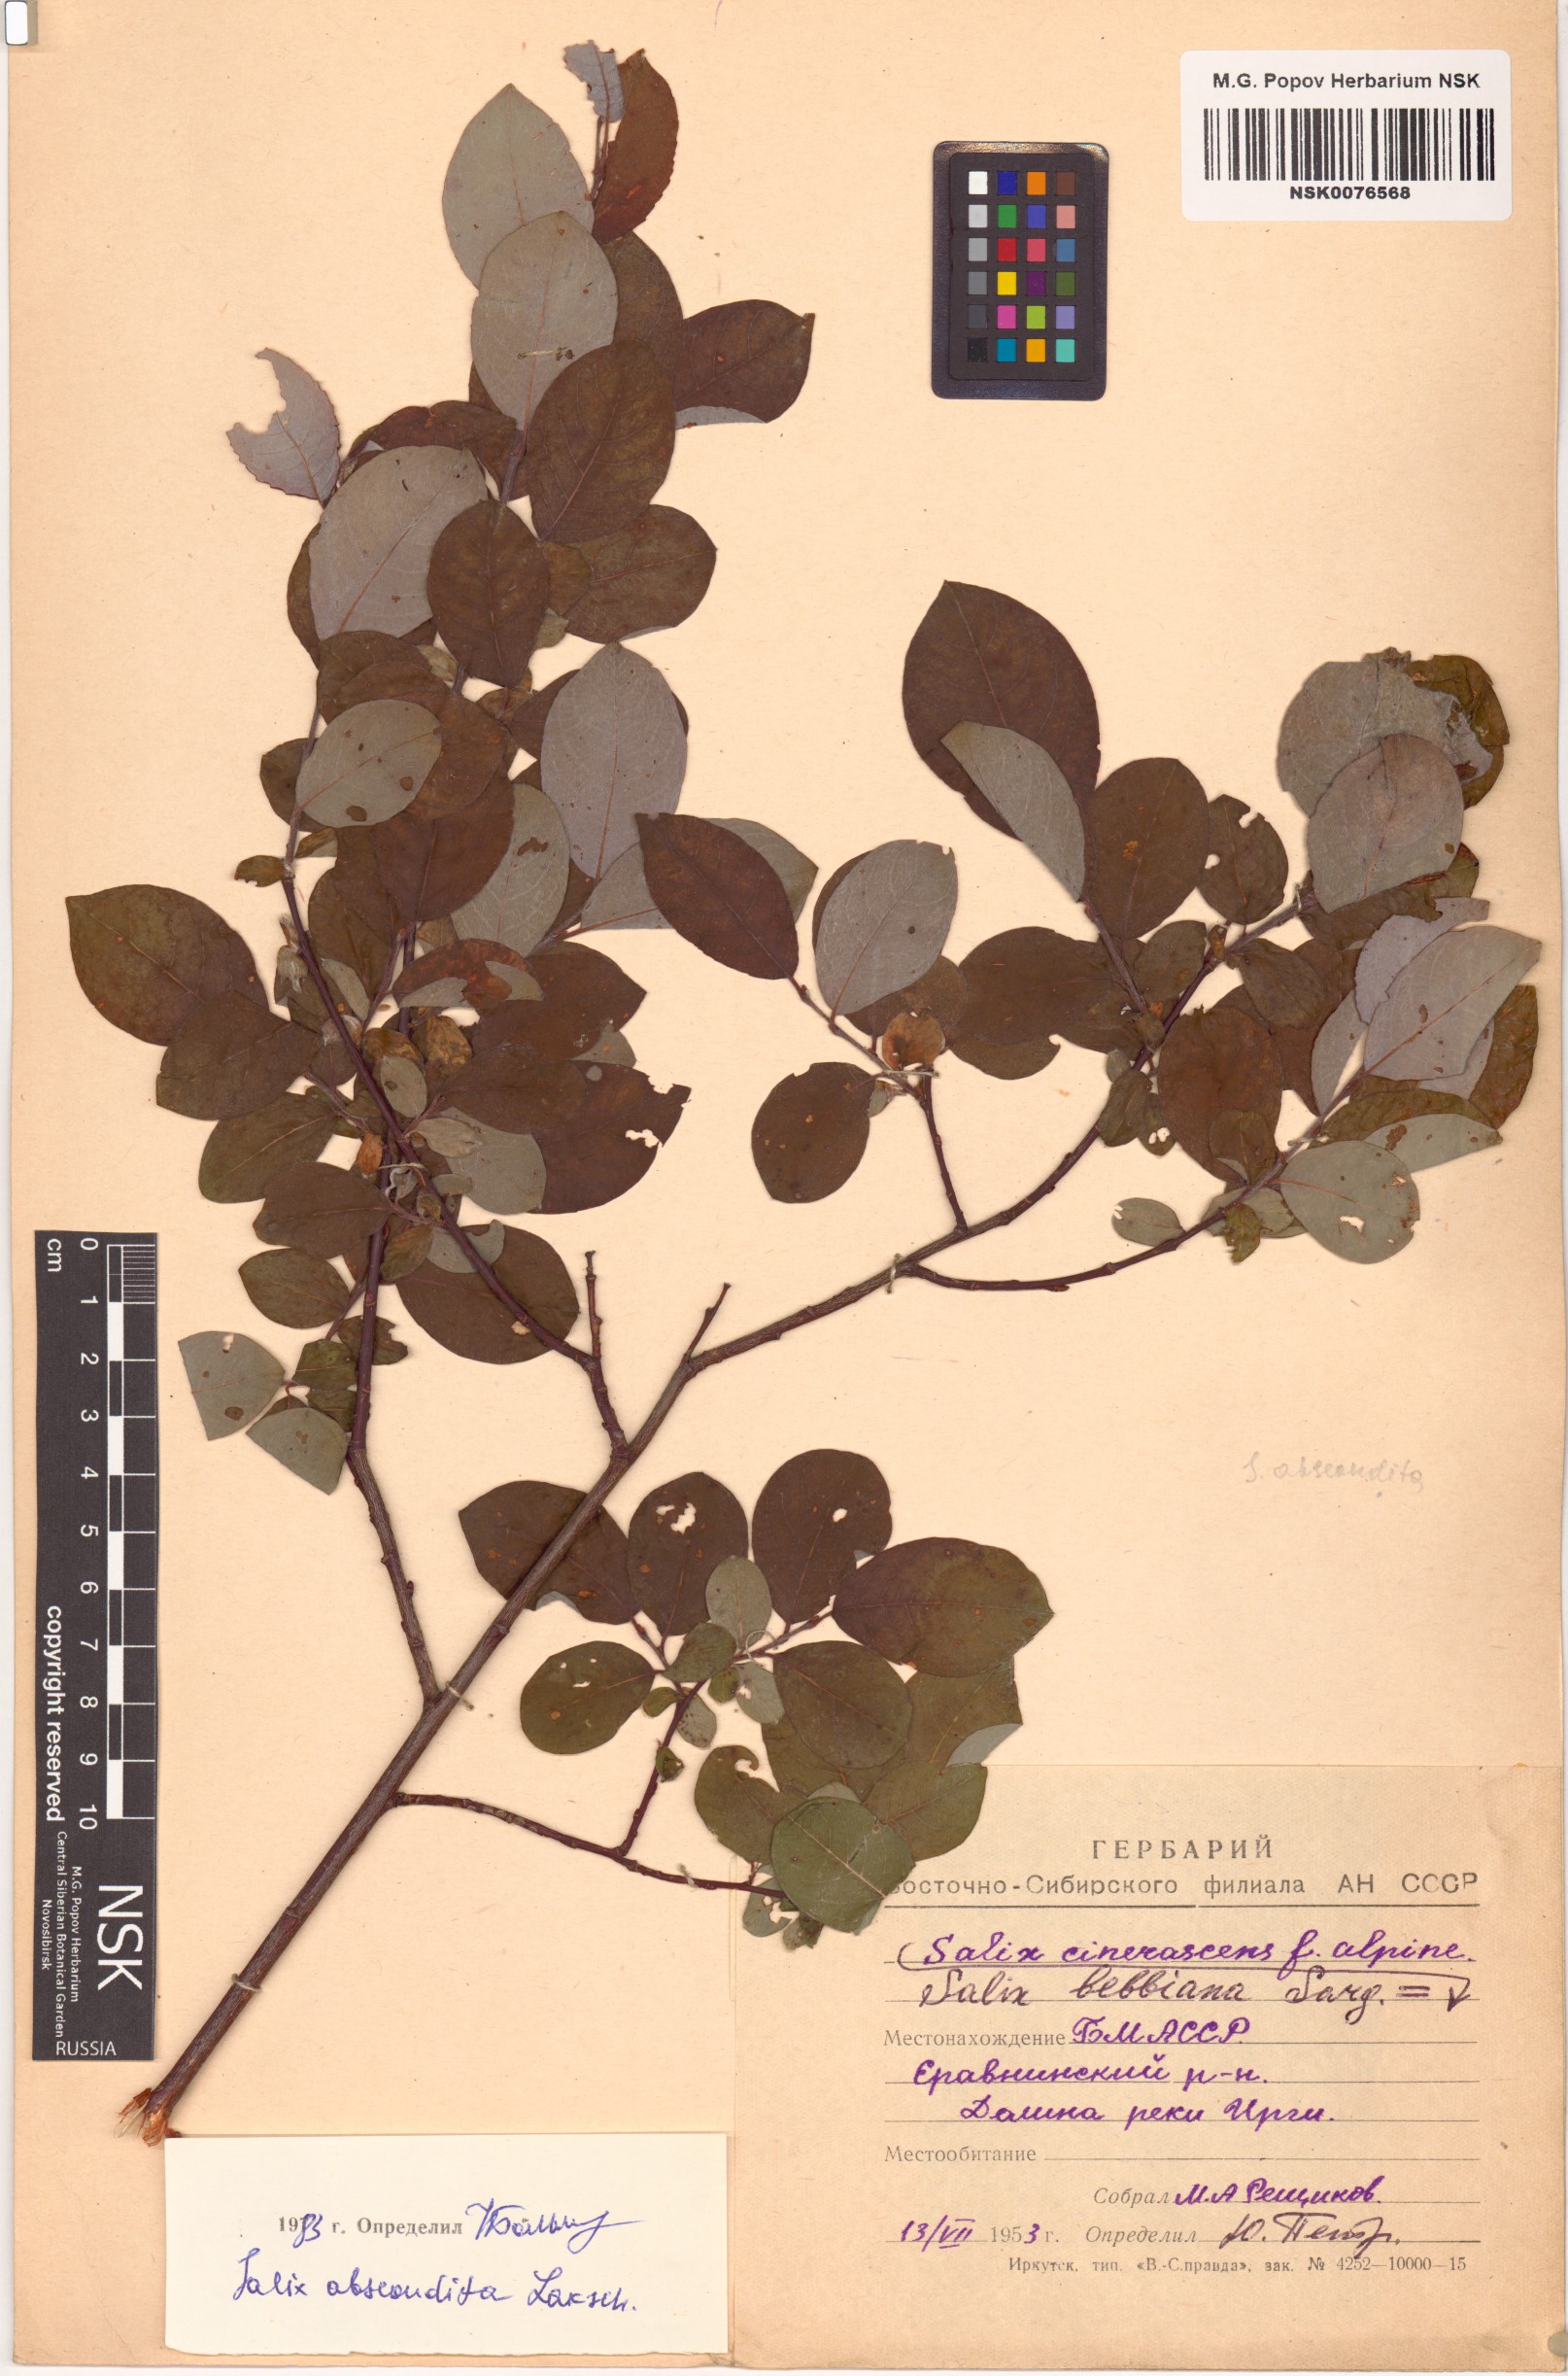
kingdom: Plantae
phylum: Tracheophyta
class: Magnoliopsida
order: Malpighiales
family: Salicaceae
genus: Salix
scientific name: Salix abscondita
